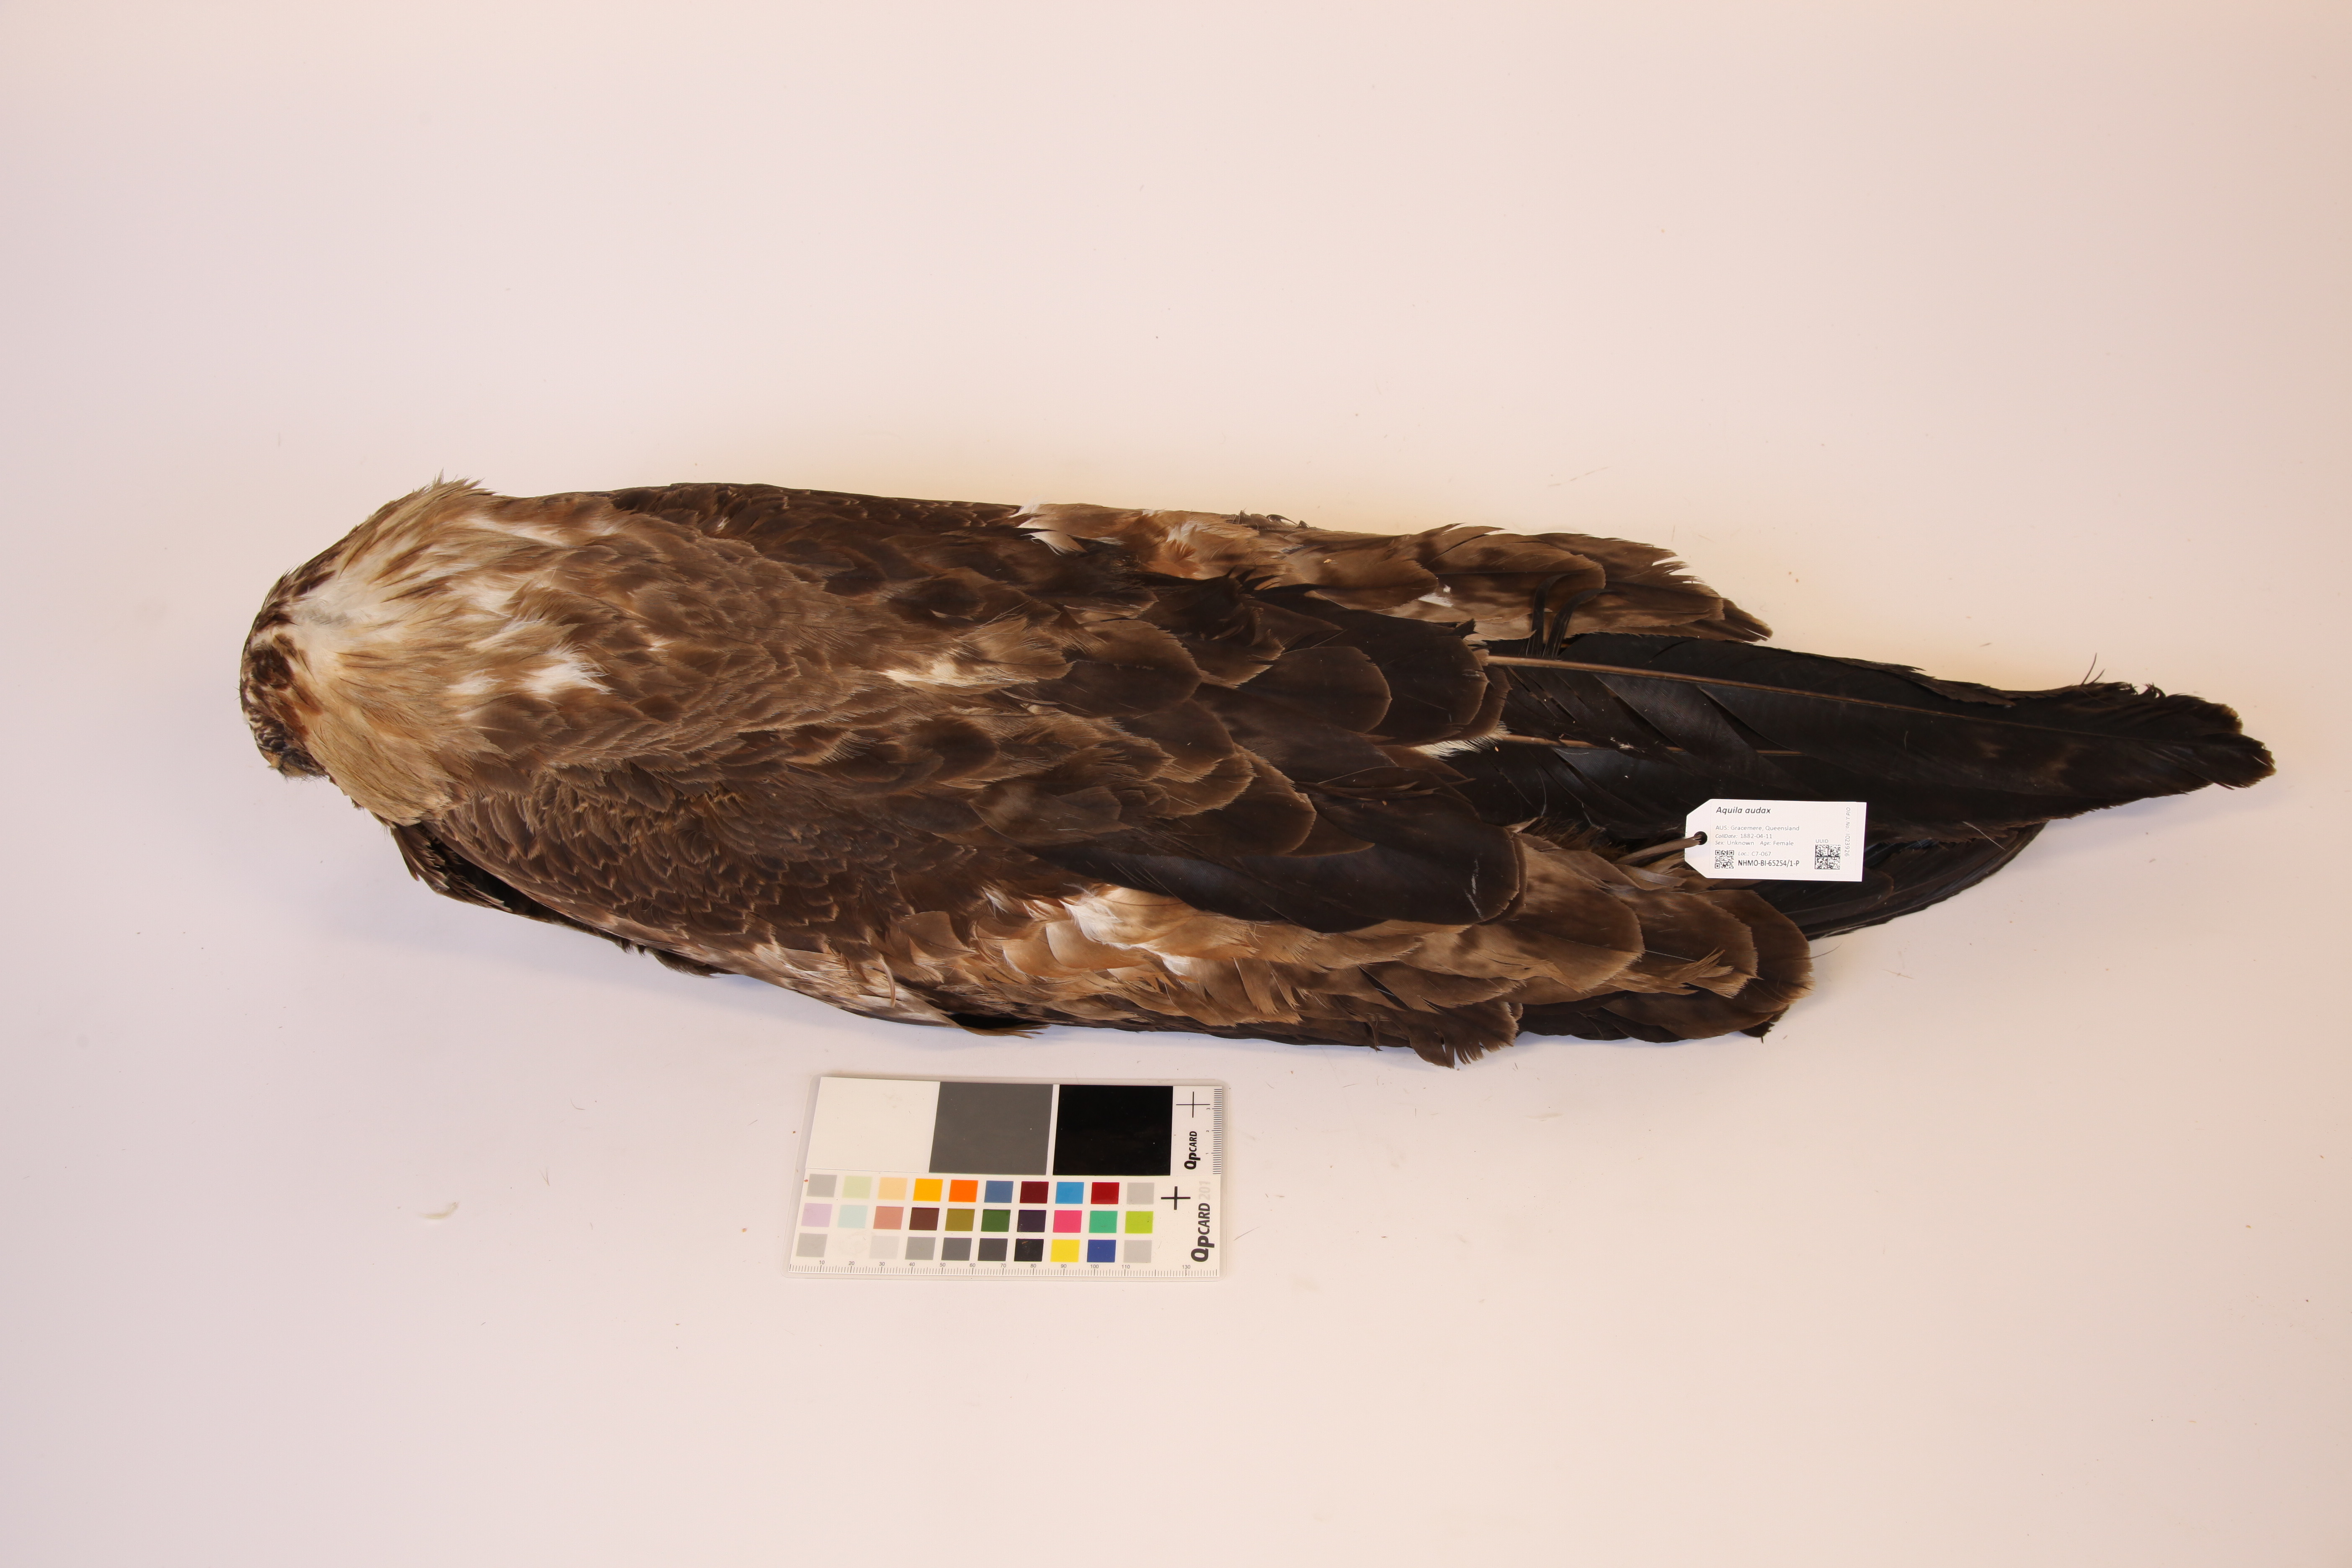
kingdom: Animalia
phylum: Chordata
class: Aves
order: Accipitriformes
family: Accipitridae
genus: Aquila
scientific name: Aquila audax
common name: Wedge-tailed eagle
